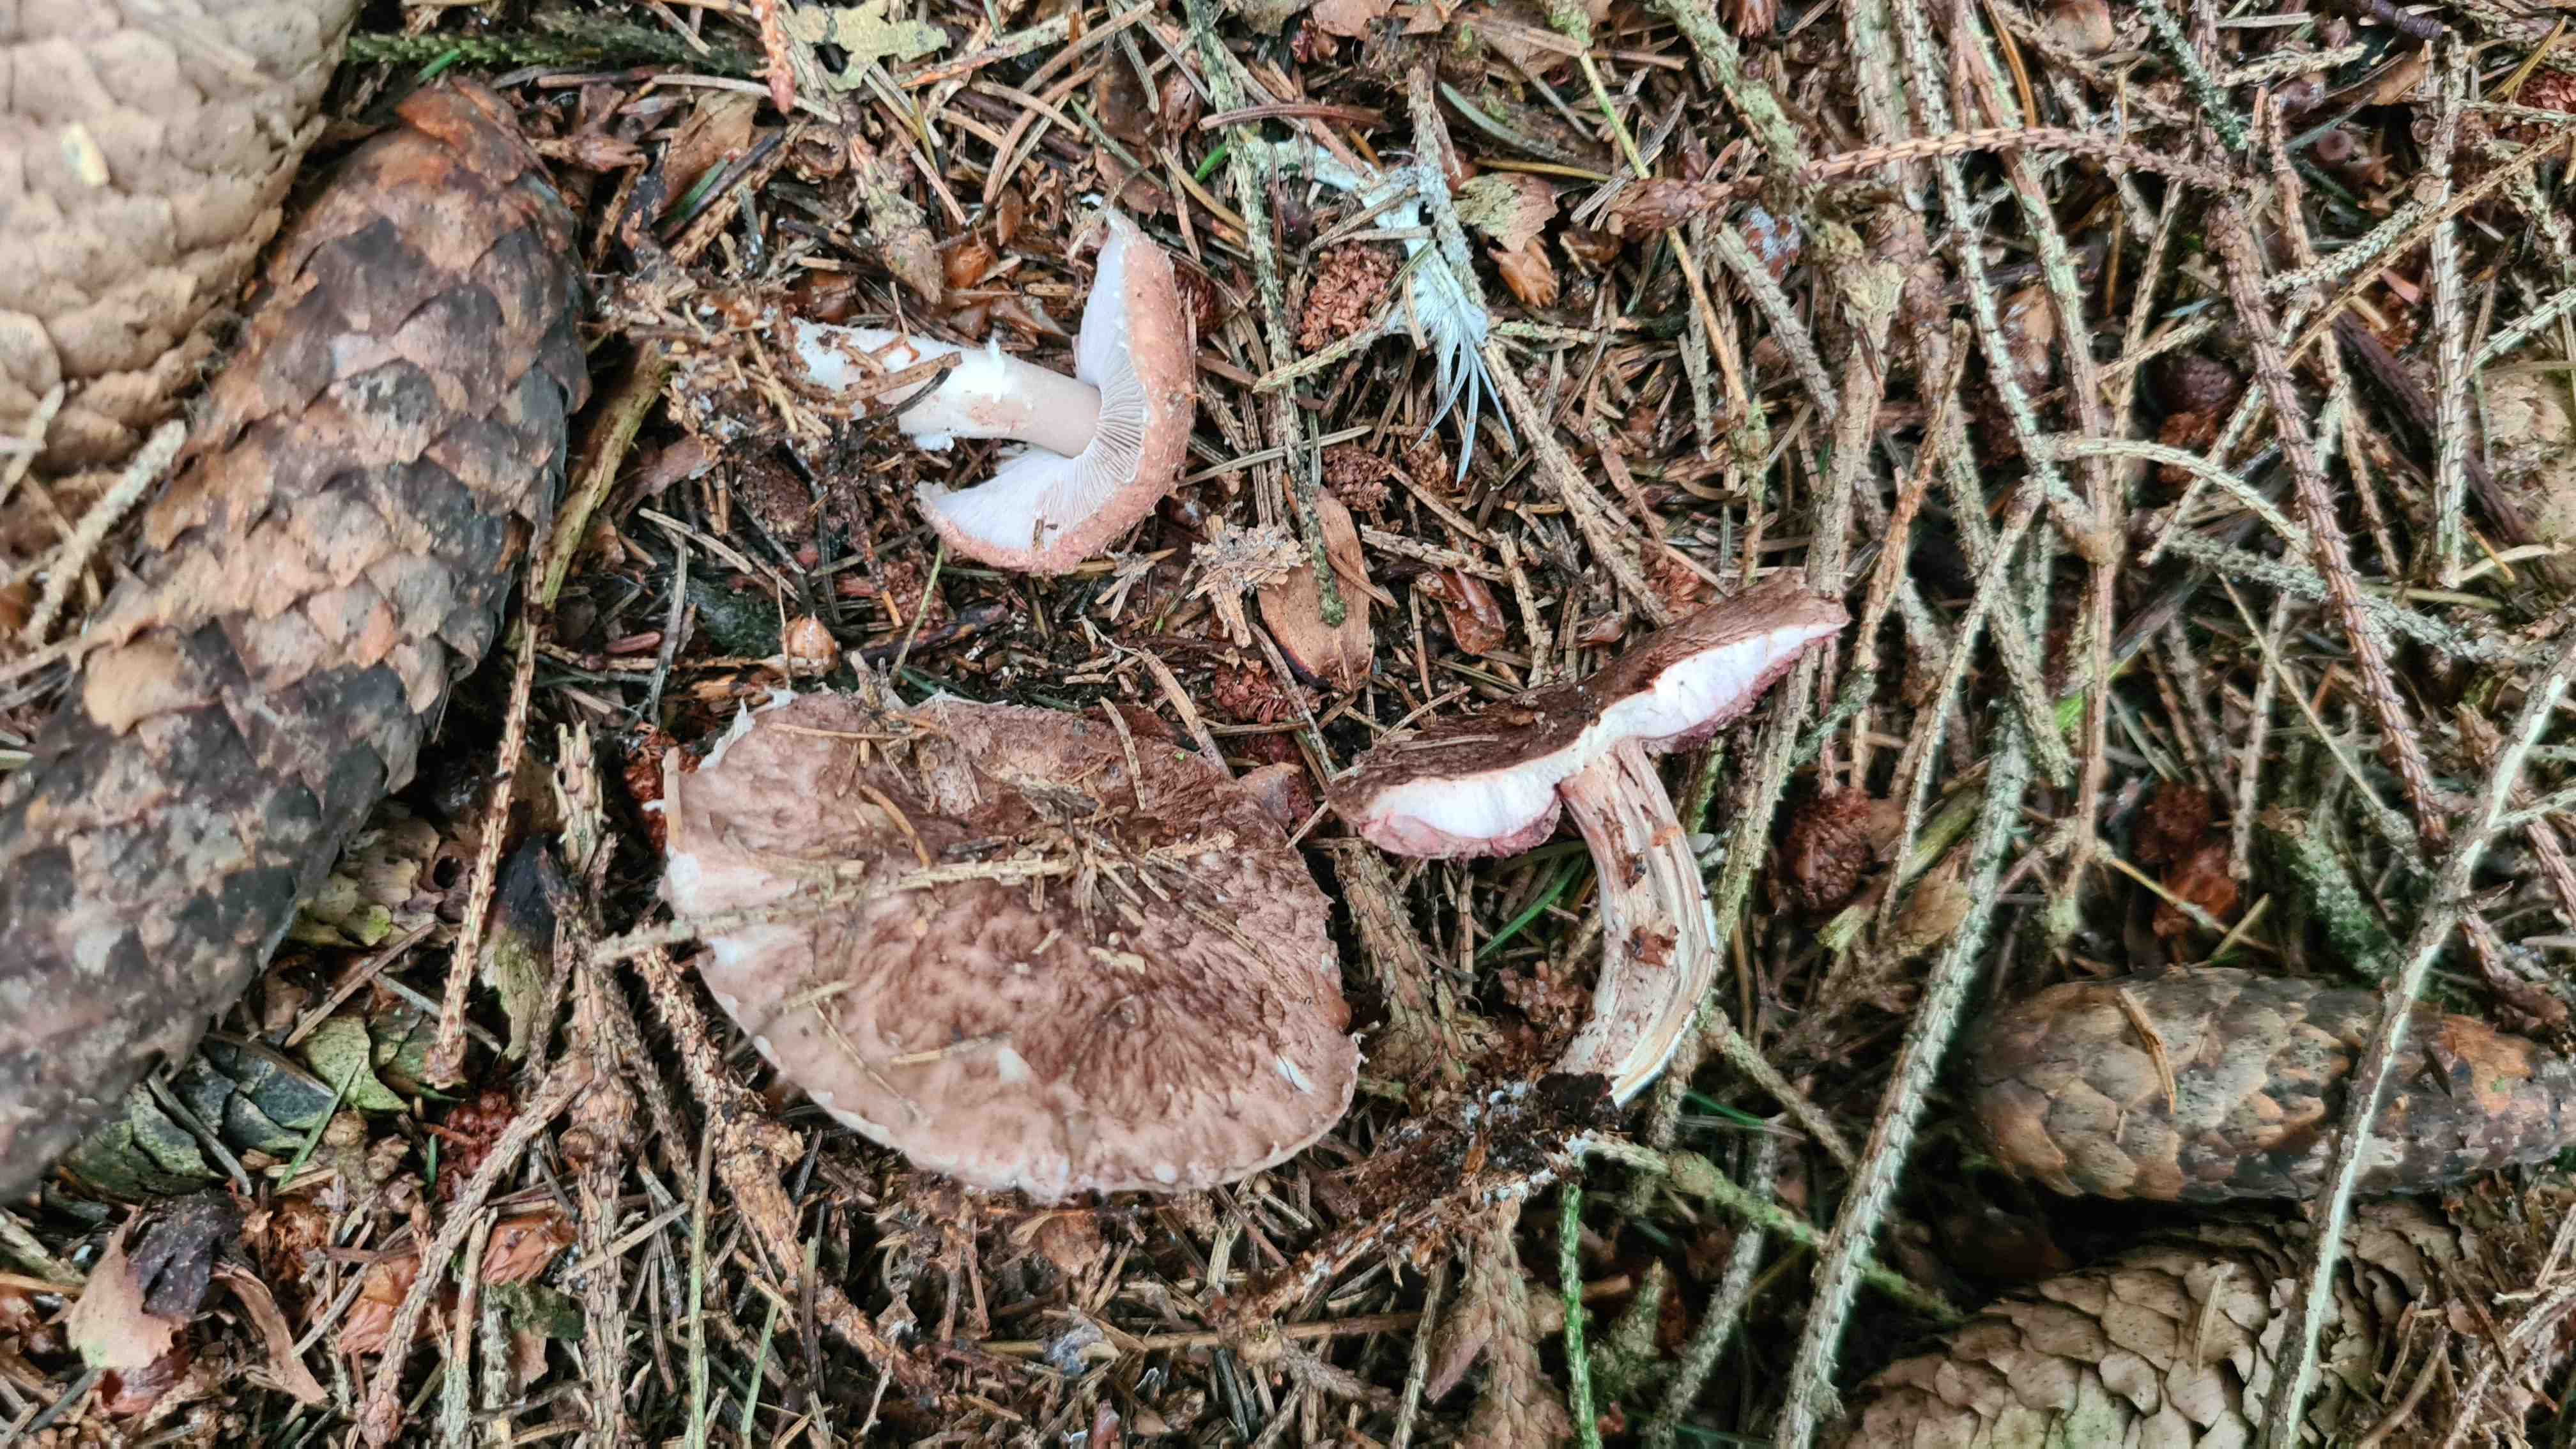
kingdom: Fungi
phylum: Basidiomycota
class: Agaricomycetes
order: Agaricales
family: Agaricaceae
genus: Agaricus
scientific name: Agaricus sylvaticus
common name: lille blod-champignon
